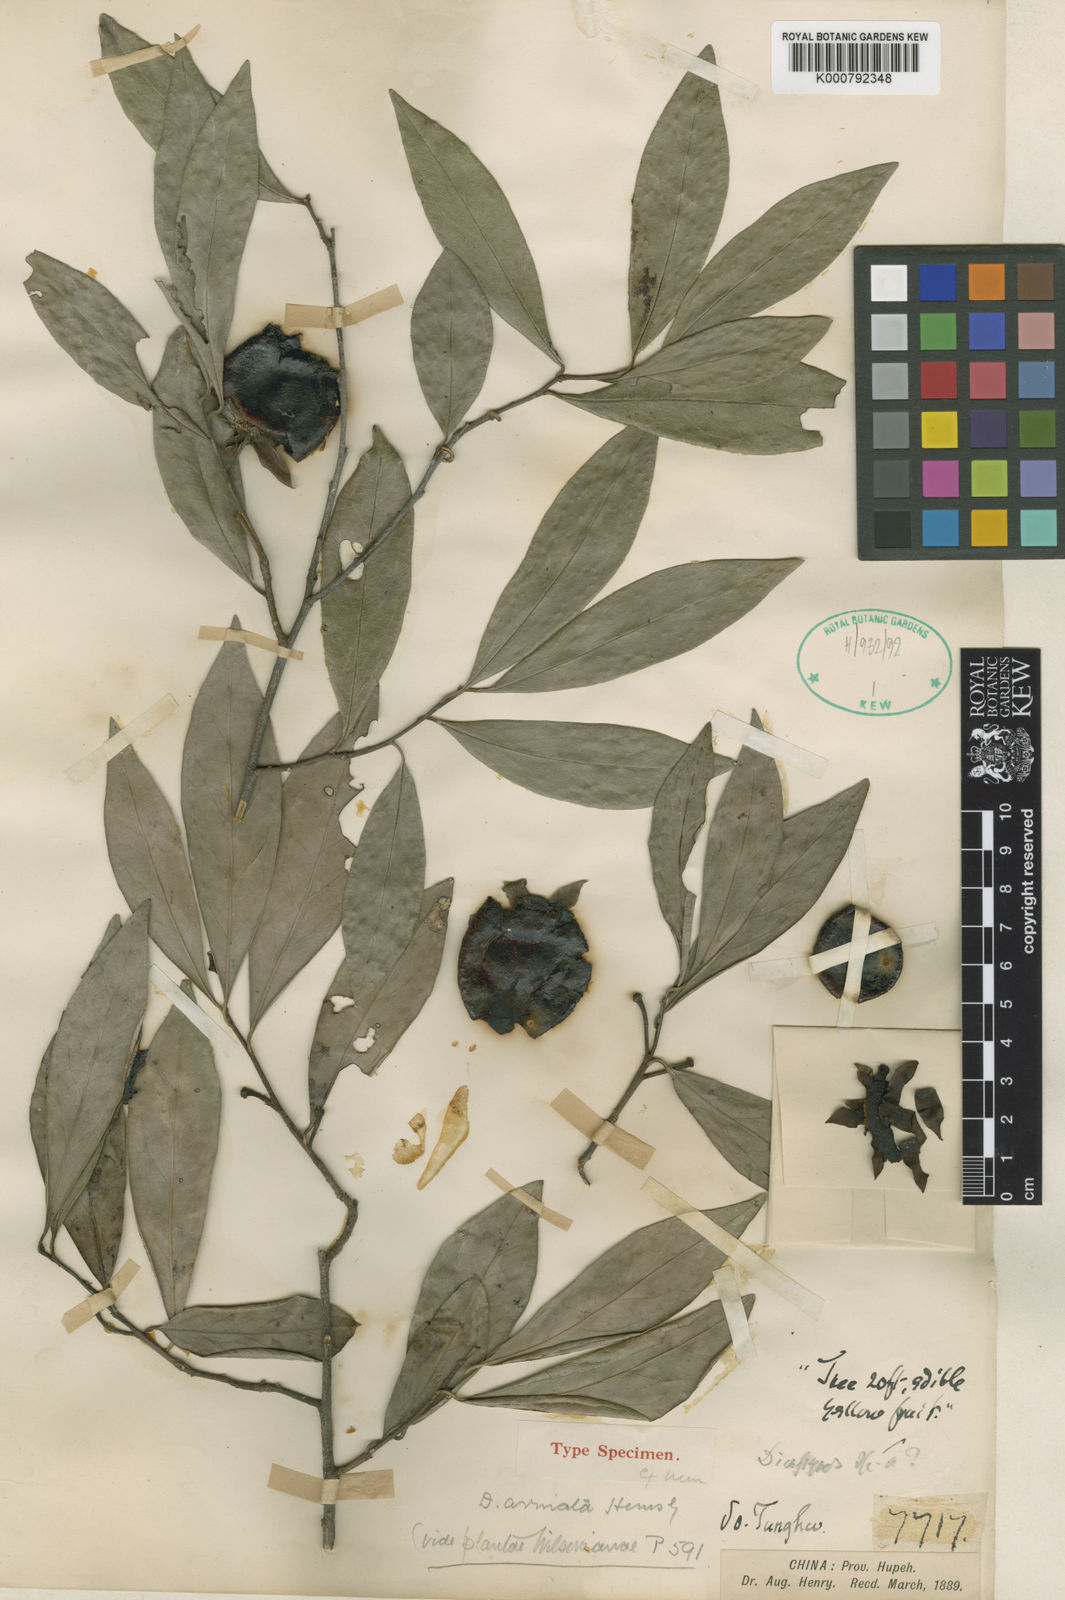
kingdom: Plantae
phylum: Tracheophyta
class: Magnoliopsida
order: Ericales
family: Ebenaceae
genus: Diospyros
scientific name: Diospyros armata
